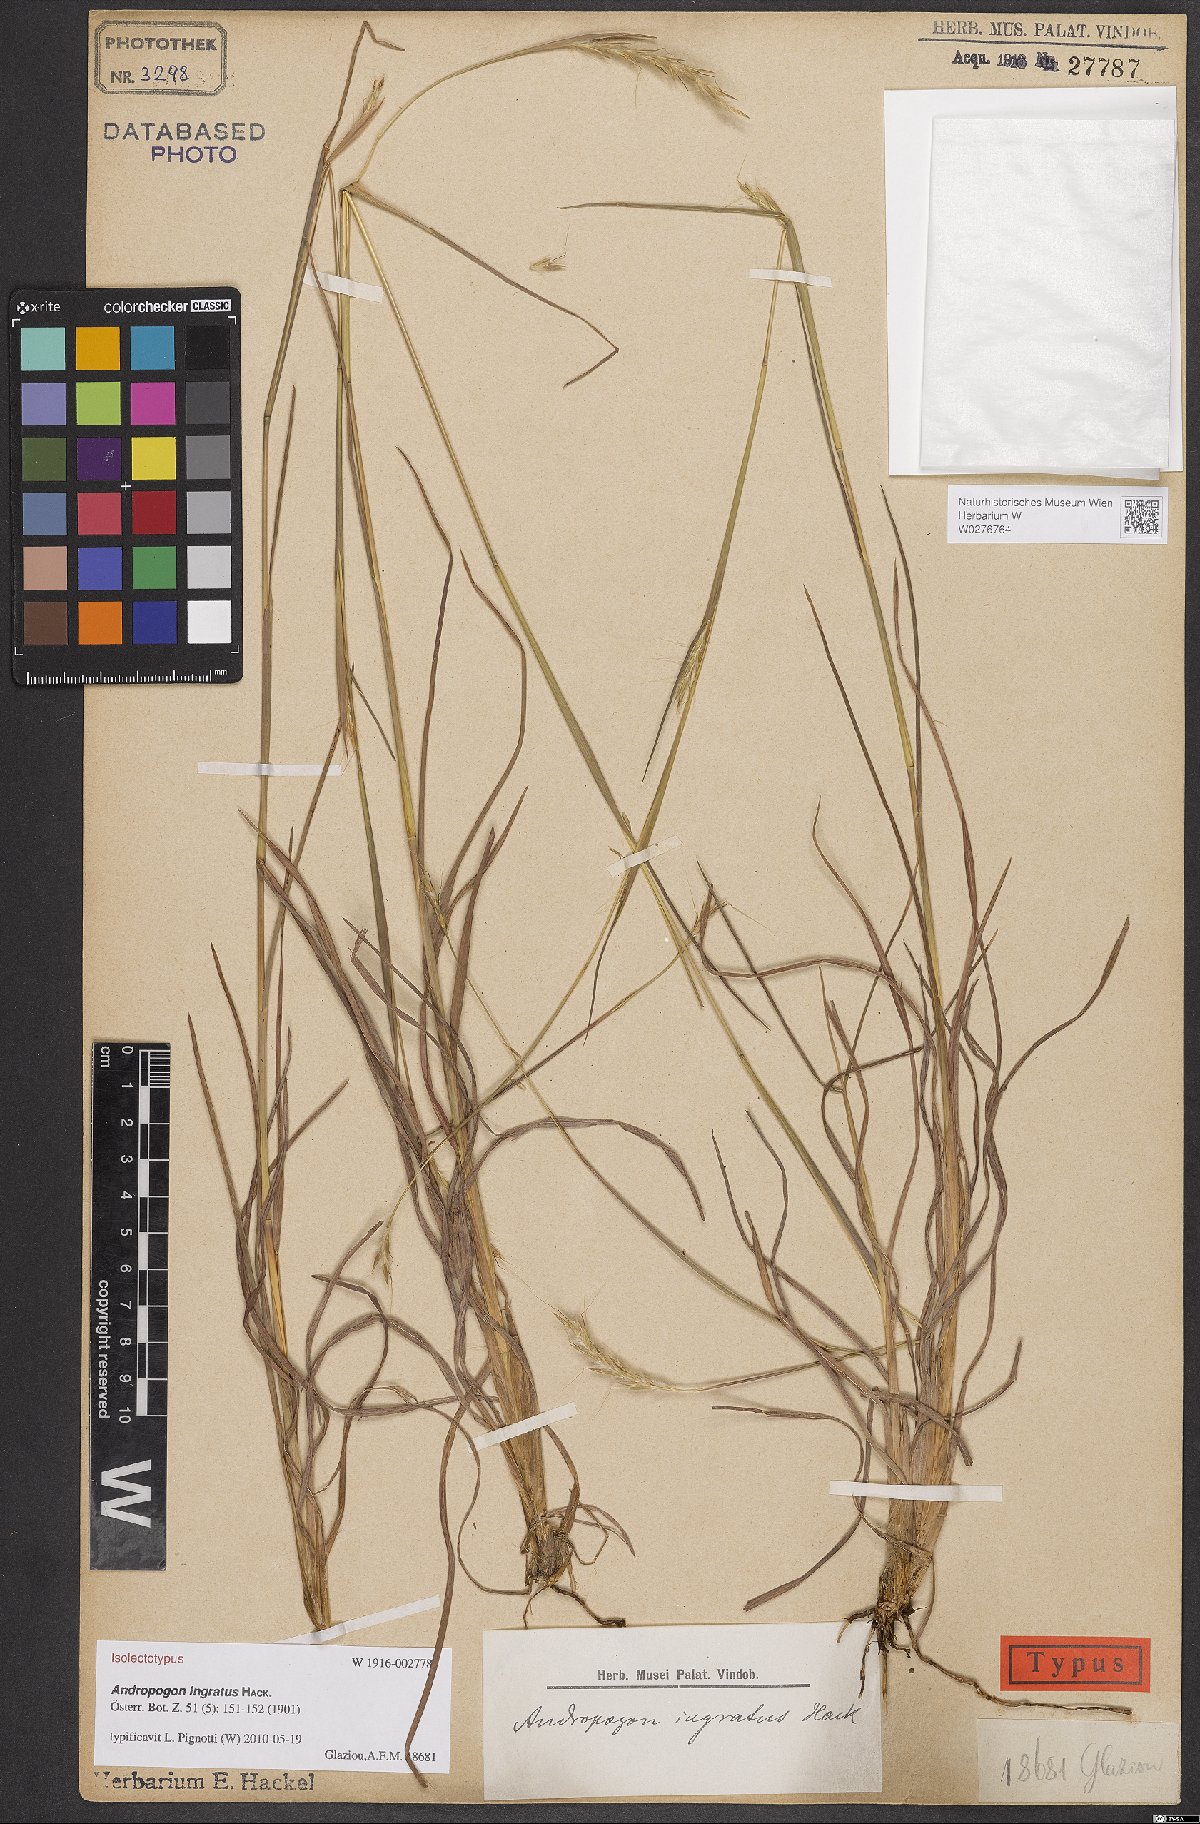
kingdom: Plantae
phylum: Tracheophyta
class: Liliopsida
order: Poales
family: Poaceae
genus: Andropogon
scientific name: Andropogon ingratus
